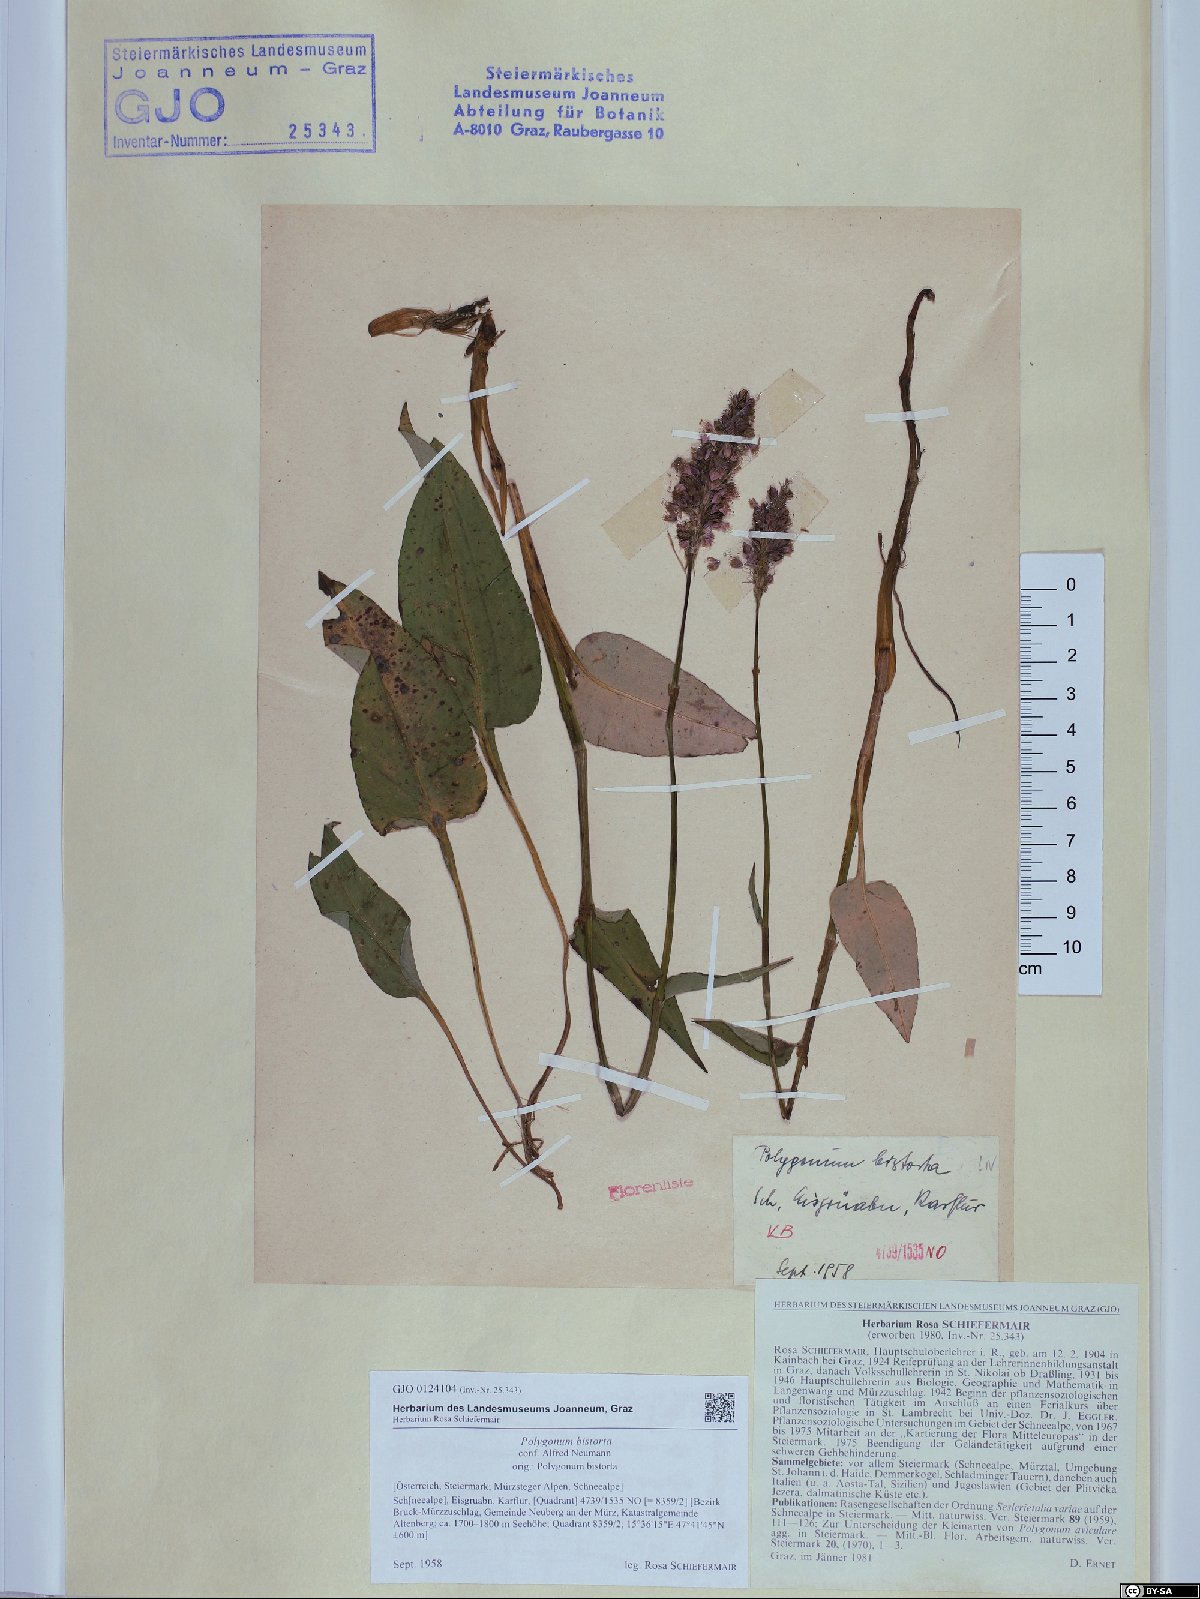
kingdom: Plantae
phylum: Tracheophyta
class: Magnoliopsida
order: Caryophyllales
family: Polygonaceae
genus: Bistorta
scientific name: Bistorta officinalis
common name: Common bistort
